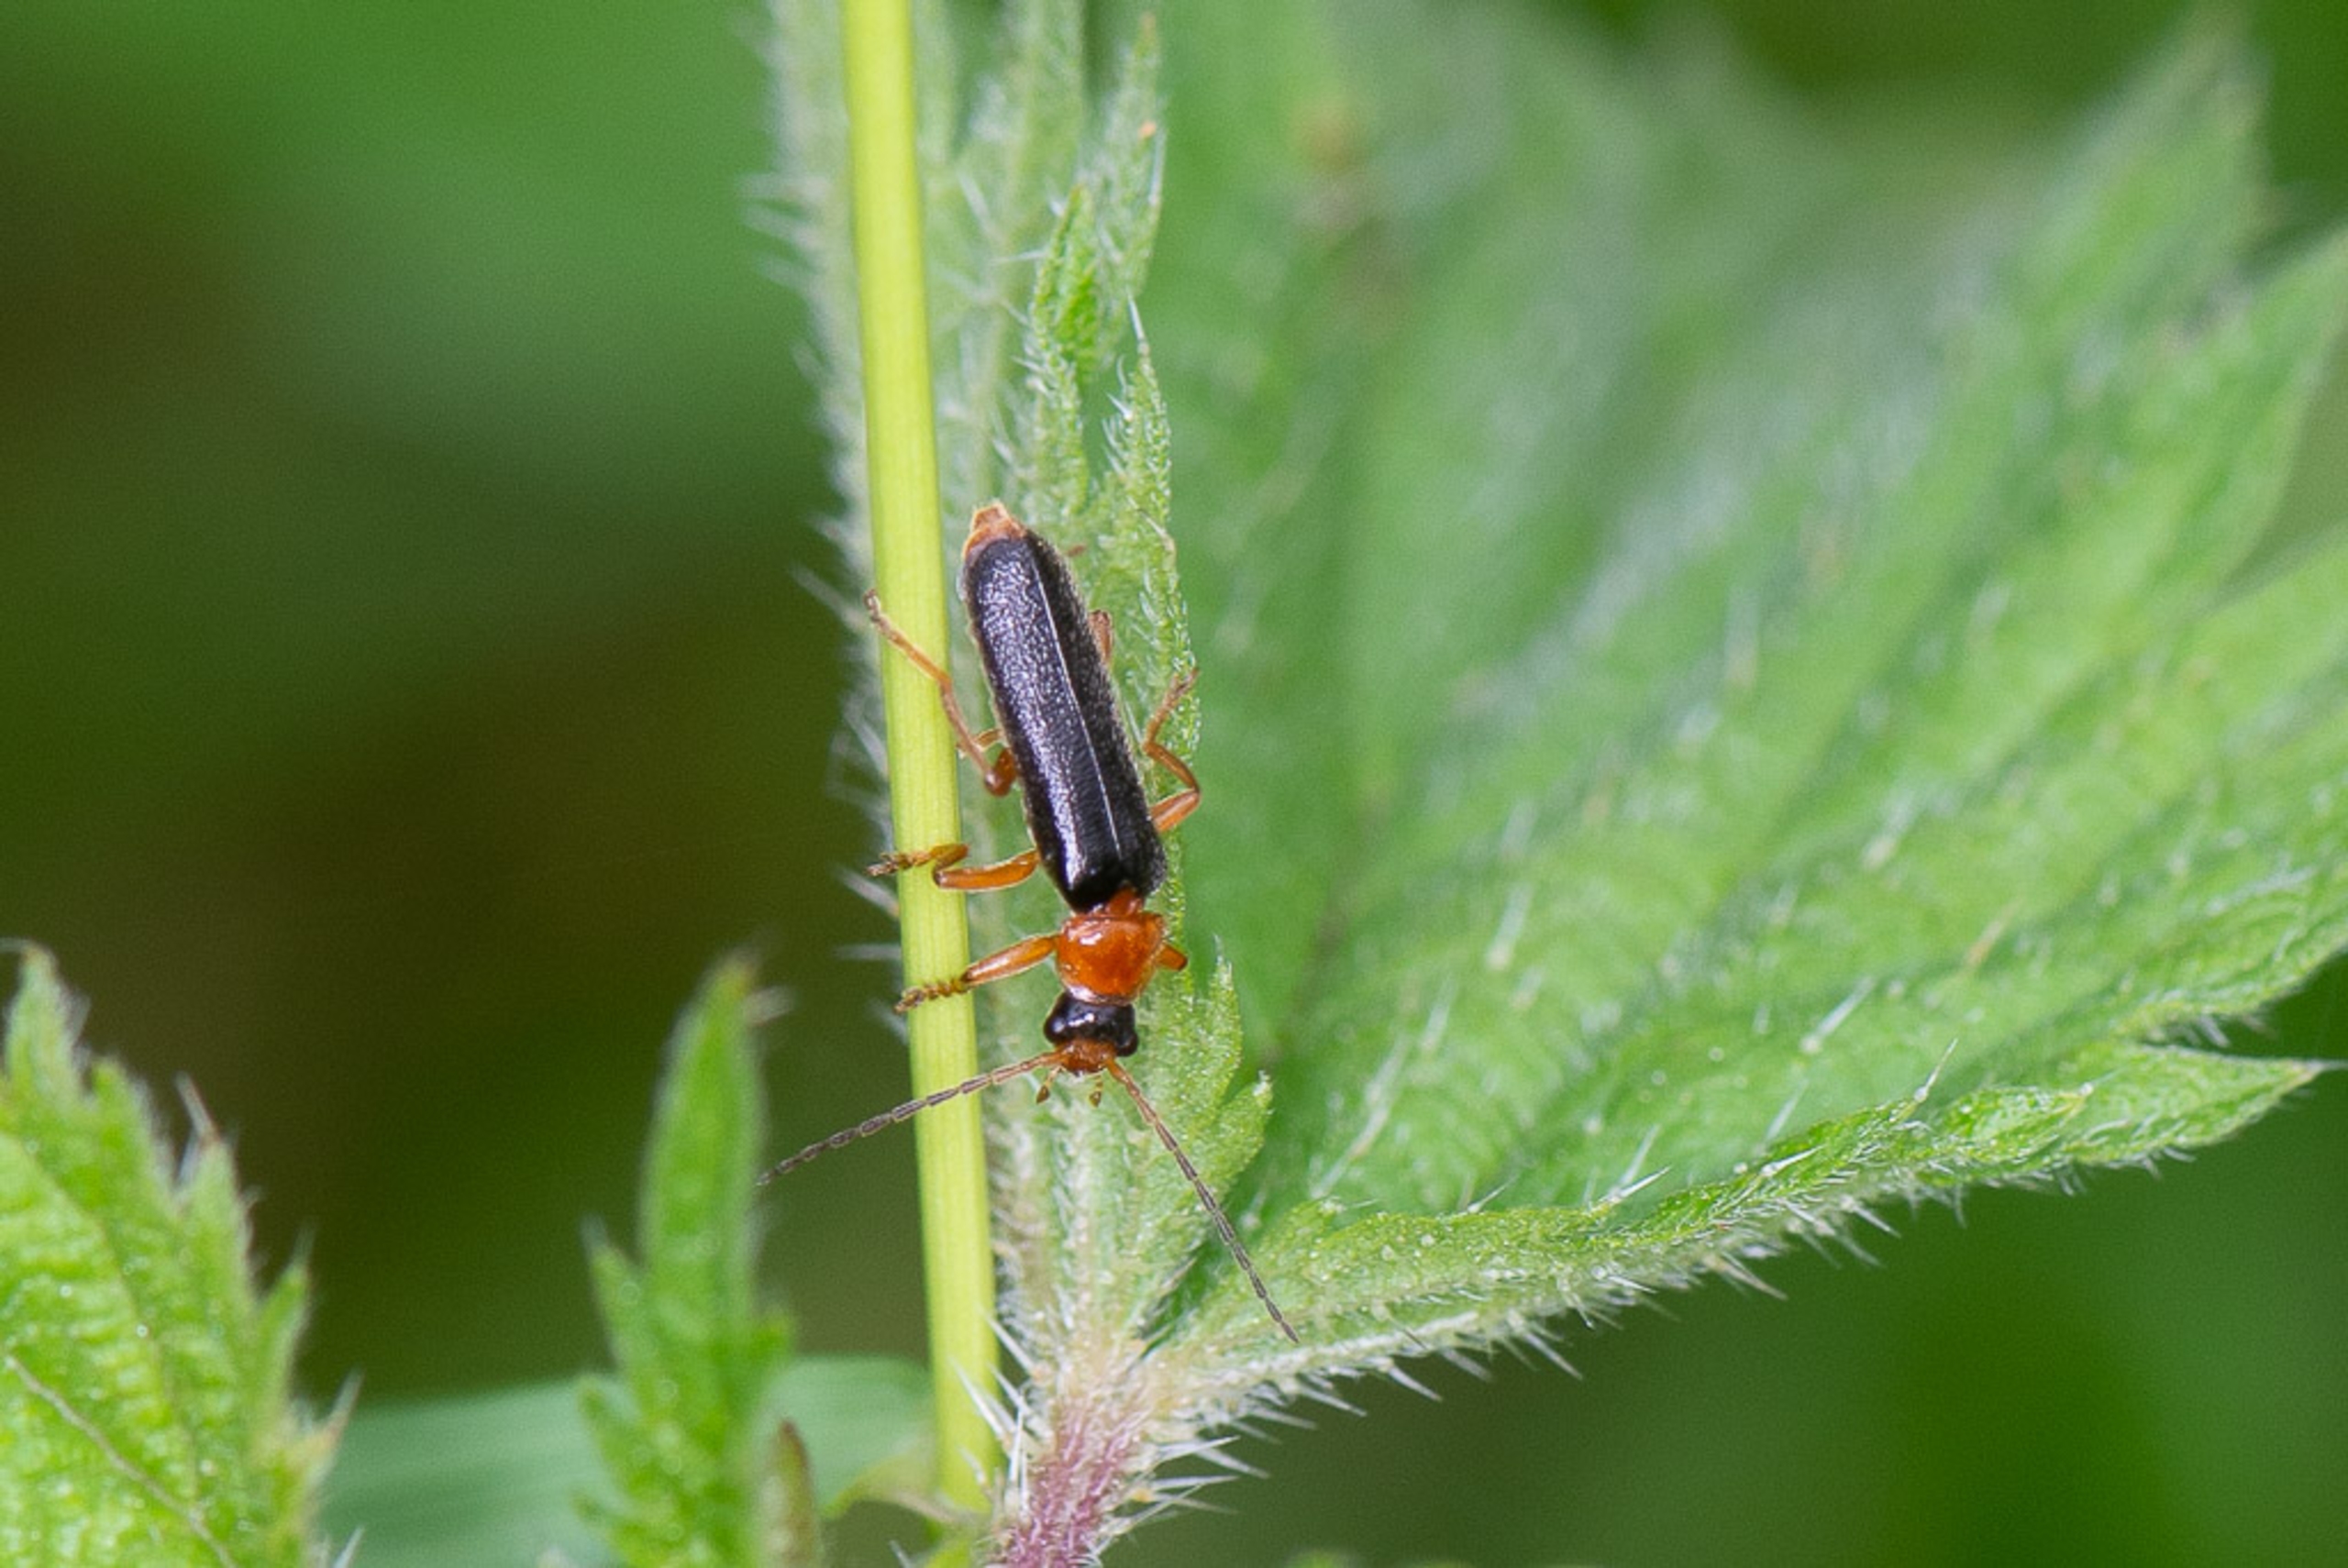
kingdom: Animalia
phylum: Arthropoda
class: Insecta
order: Coleoptera
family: Cantharidae
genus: Cantharis
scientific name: Cantharis nigra
